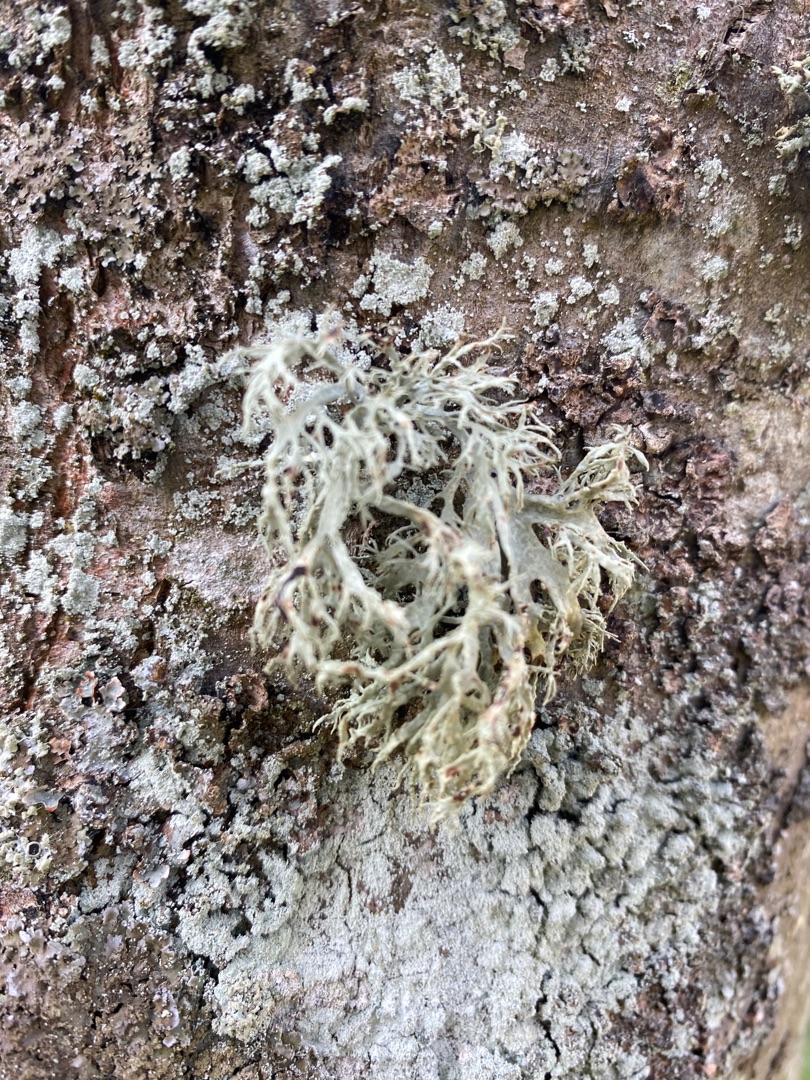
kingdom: Fungi
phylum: Ascomycota
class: Lecanoromycetes
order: Lecanorales
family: Ramalinaceae
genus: Ramalina
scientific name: Ramalina farinacea
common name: Melet grenlav
